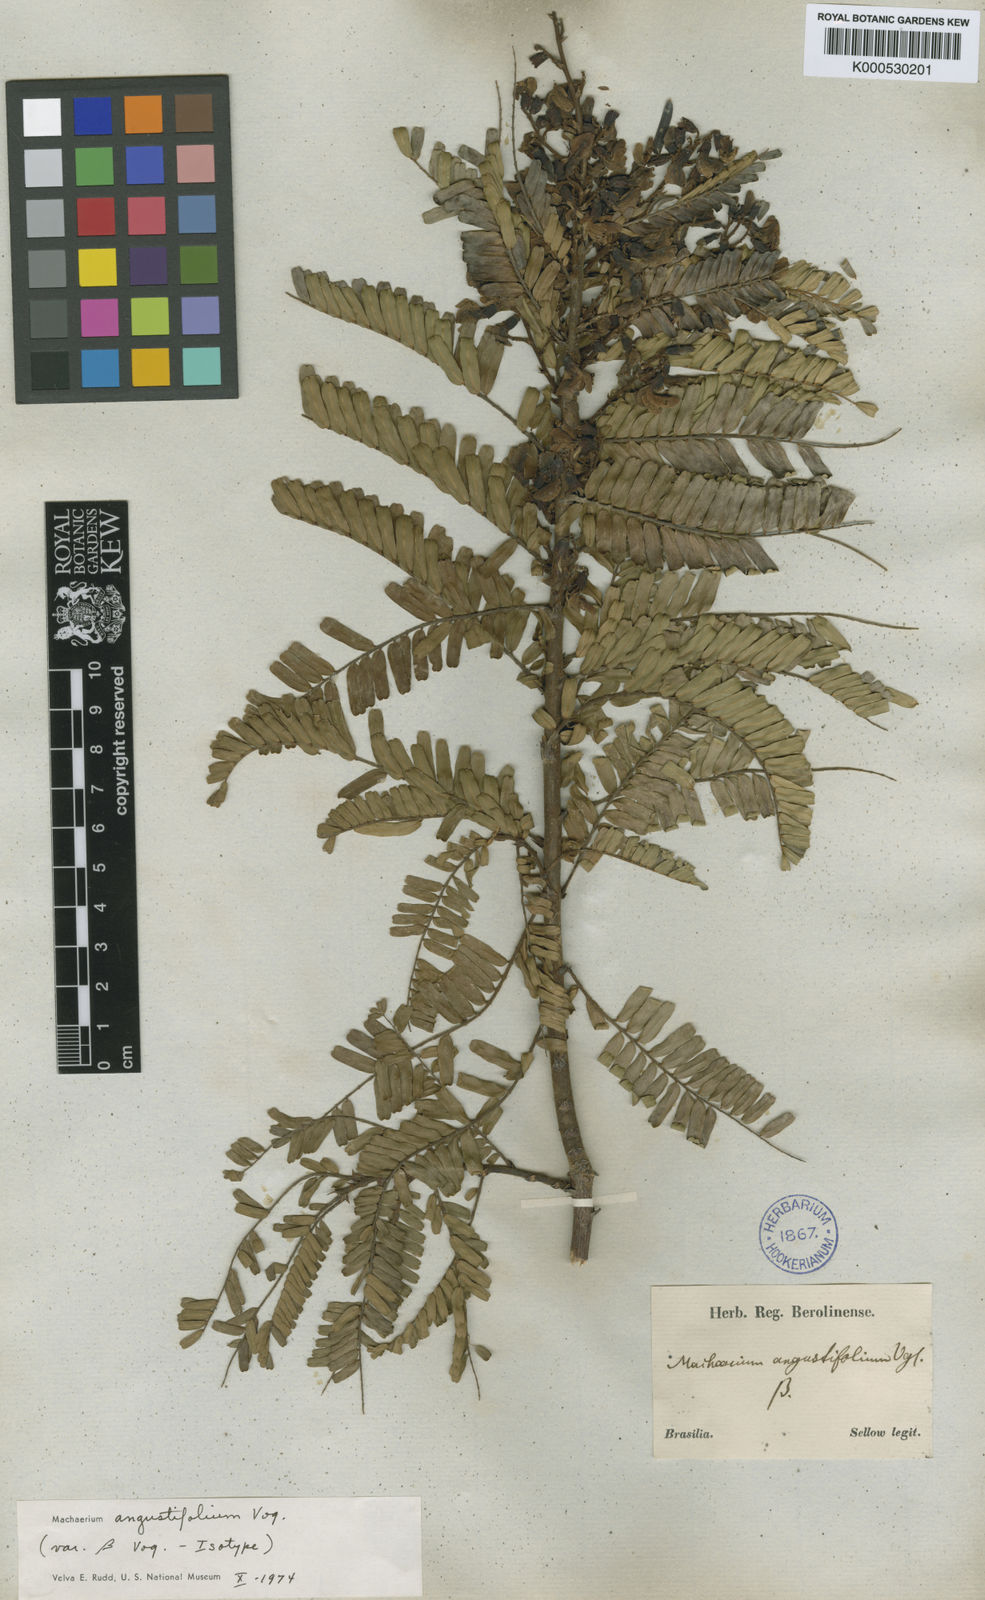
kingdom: Plantae
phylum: Tracheophyta
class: Magnoliopsida
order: Fabales
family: Fabaceae
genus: Machaerium
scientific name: Machaerium aculeatum
